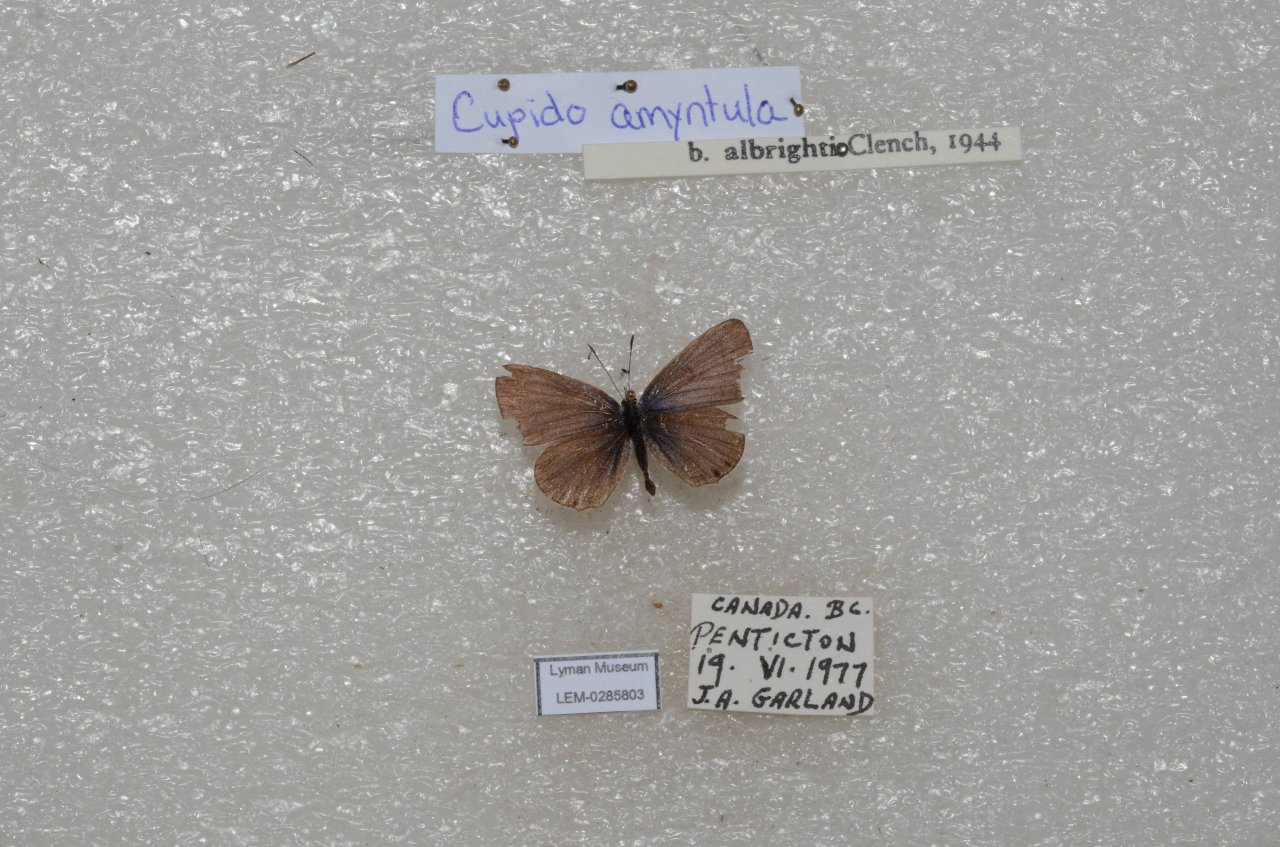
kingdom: Animalia
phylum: Arthropoda
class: Insecta
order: Lepidoptera
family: Lycaenidae
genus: Elkalyce
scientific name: Elkalyce amyntula
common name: Western Tailed-Blue
